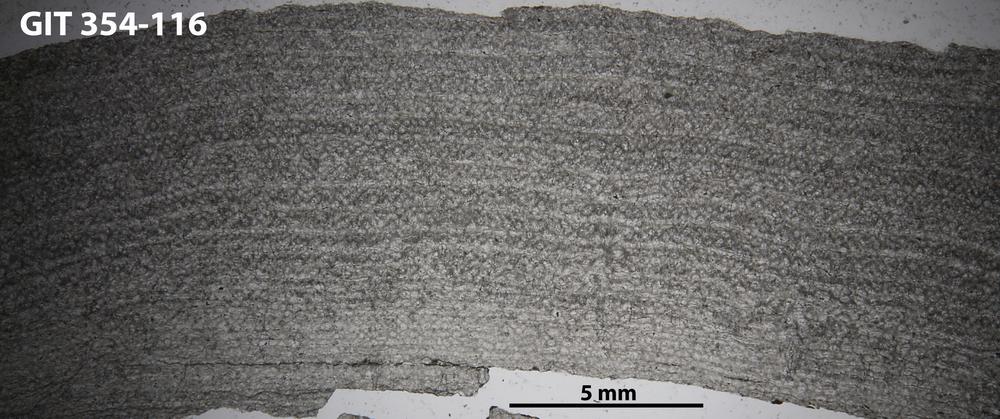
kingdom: Animalia
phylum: Porifera
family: Clathrodictyidae
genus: Clathrodictyon
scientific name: Clathrodictyon boreale
